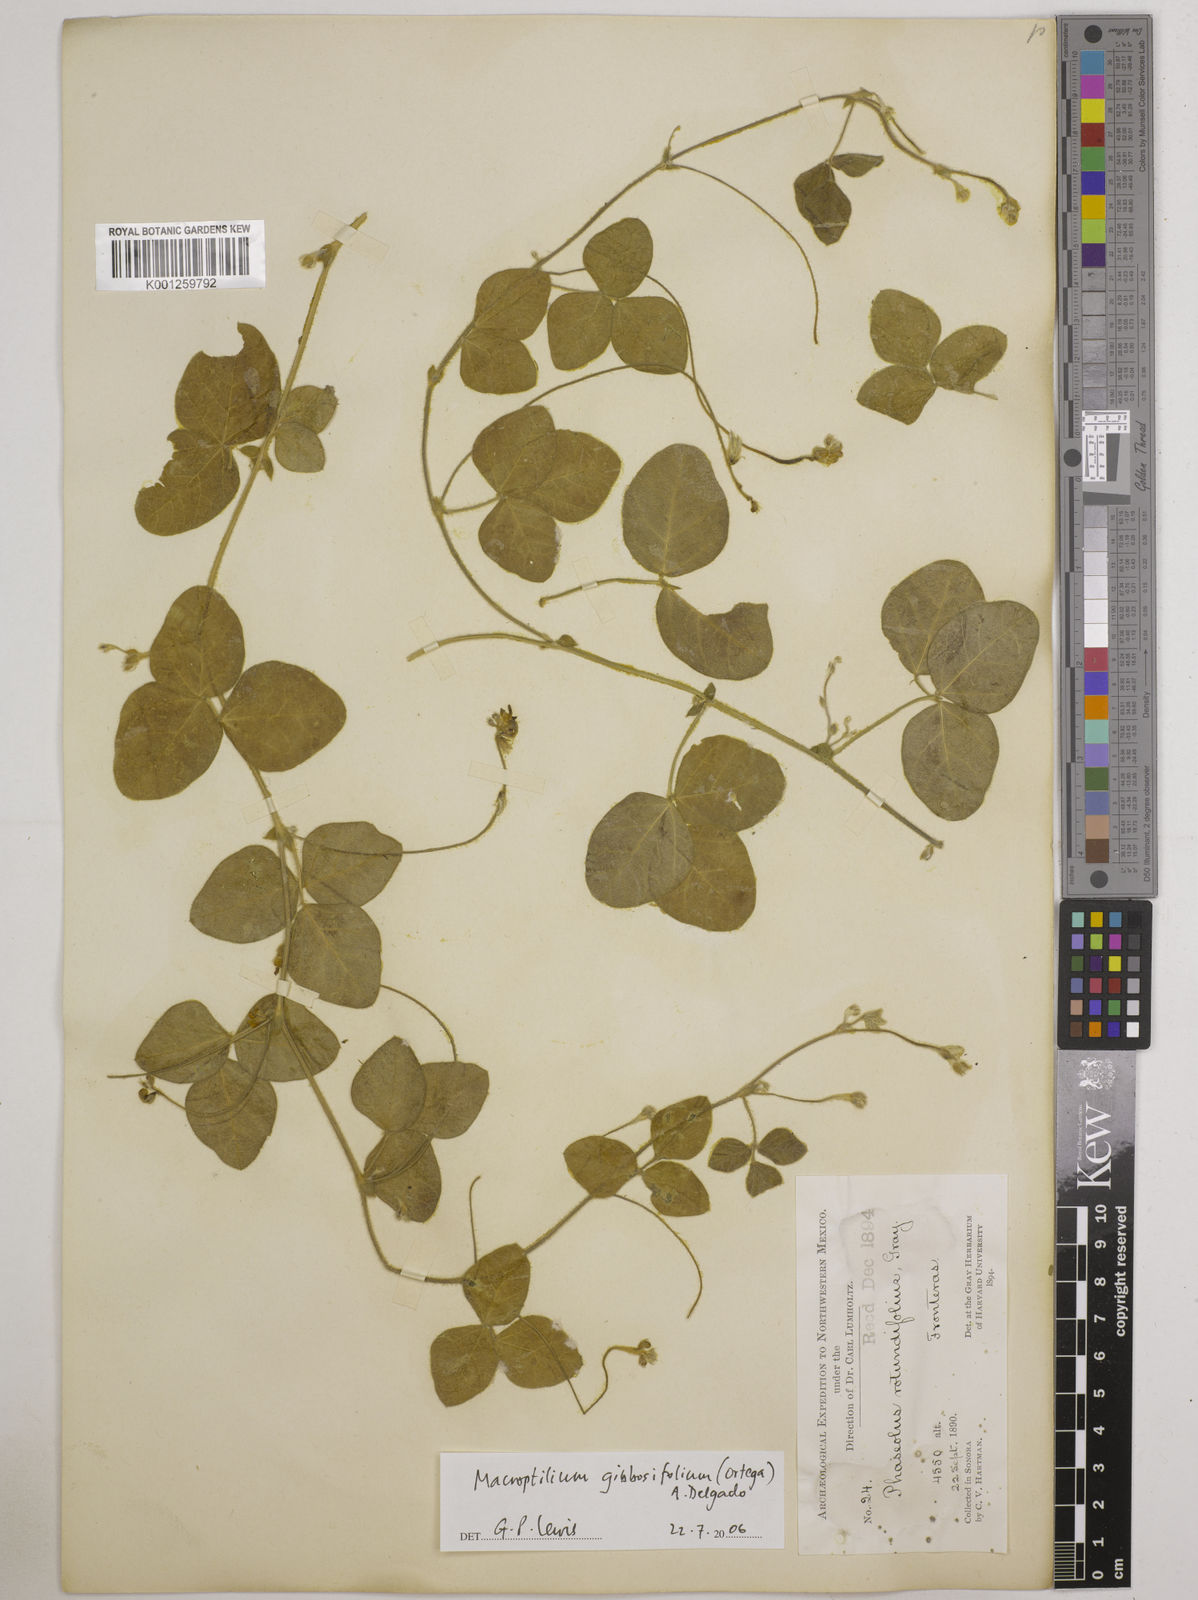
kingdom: Plantae
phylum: Tracheophyta
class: Magnoliopsida
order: Fabales
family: Fabaceae
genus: Macroptilium
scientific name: Macroptilium gibbosifolium
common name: Variableleaf bushbean
